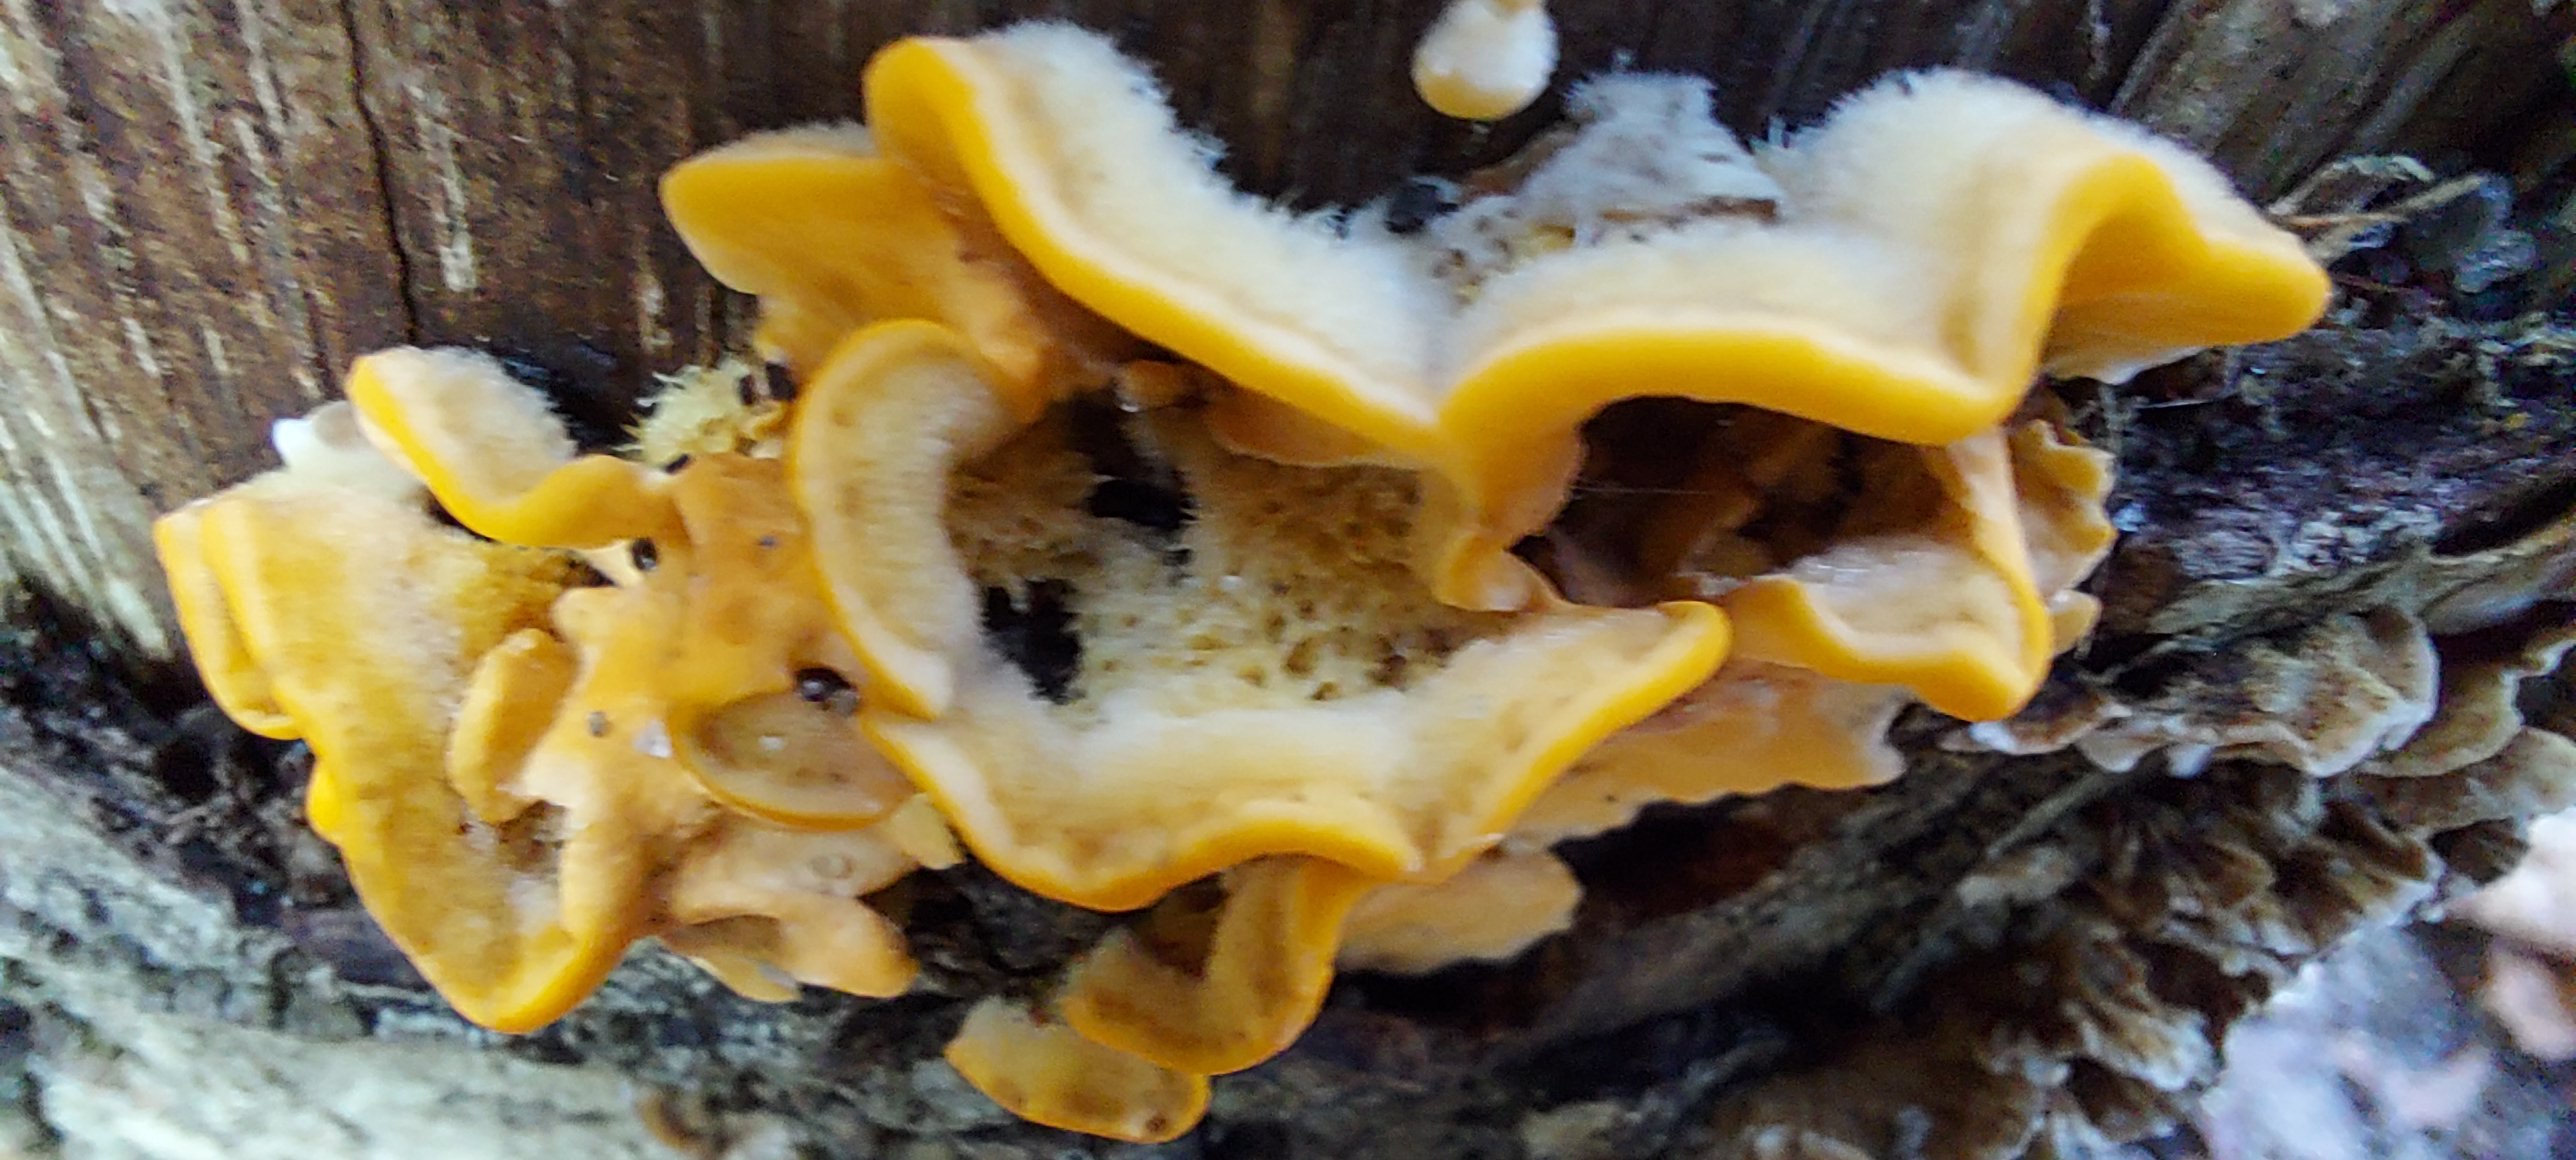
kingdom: Fungi
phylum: Basidiomycota
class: Agaricomycetes
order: Russulales
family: Stereaceae
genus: Stereum
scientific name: Stereum hirsutum
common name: håret lædersvamp
